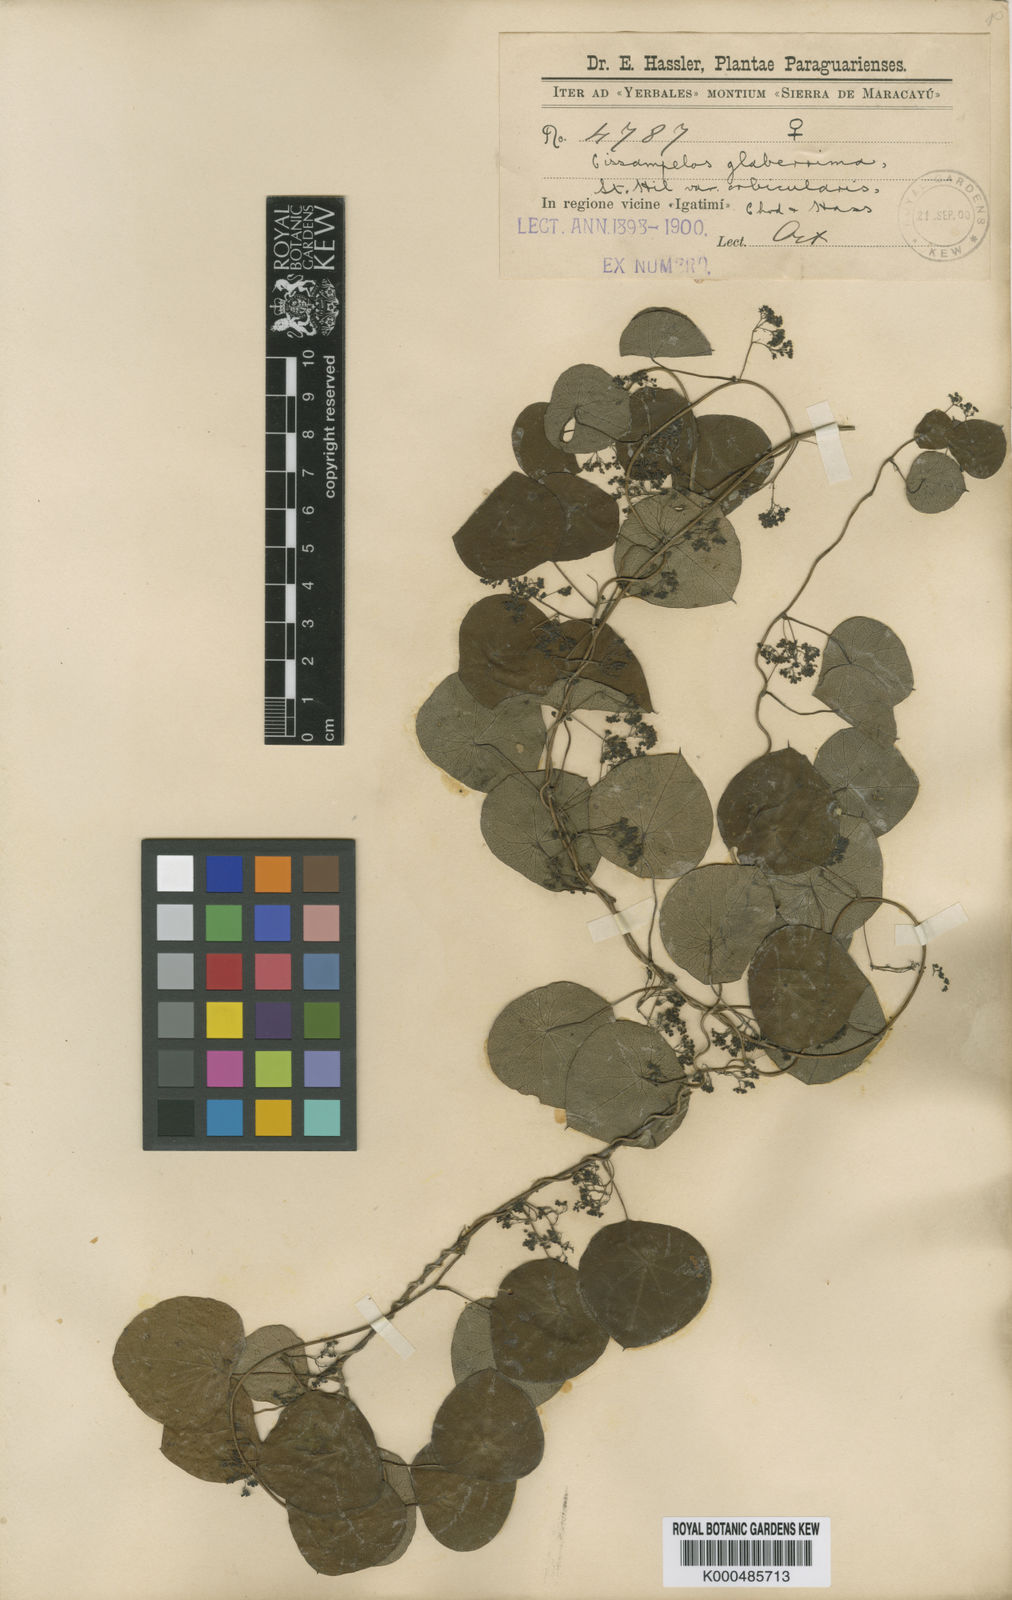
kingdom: Plantae
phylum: Tracheophyta
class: Magnoliopsida
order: Ranunculales
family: Menispermaceae
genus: Cissampelos
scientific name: Cissampelos glaberrima
